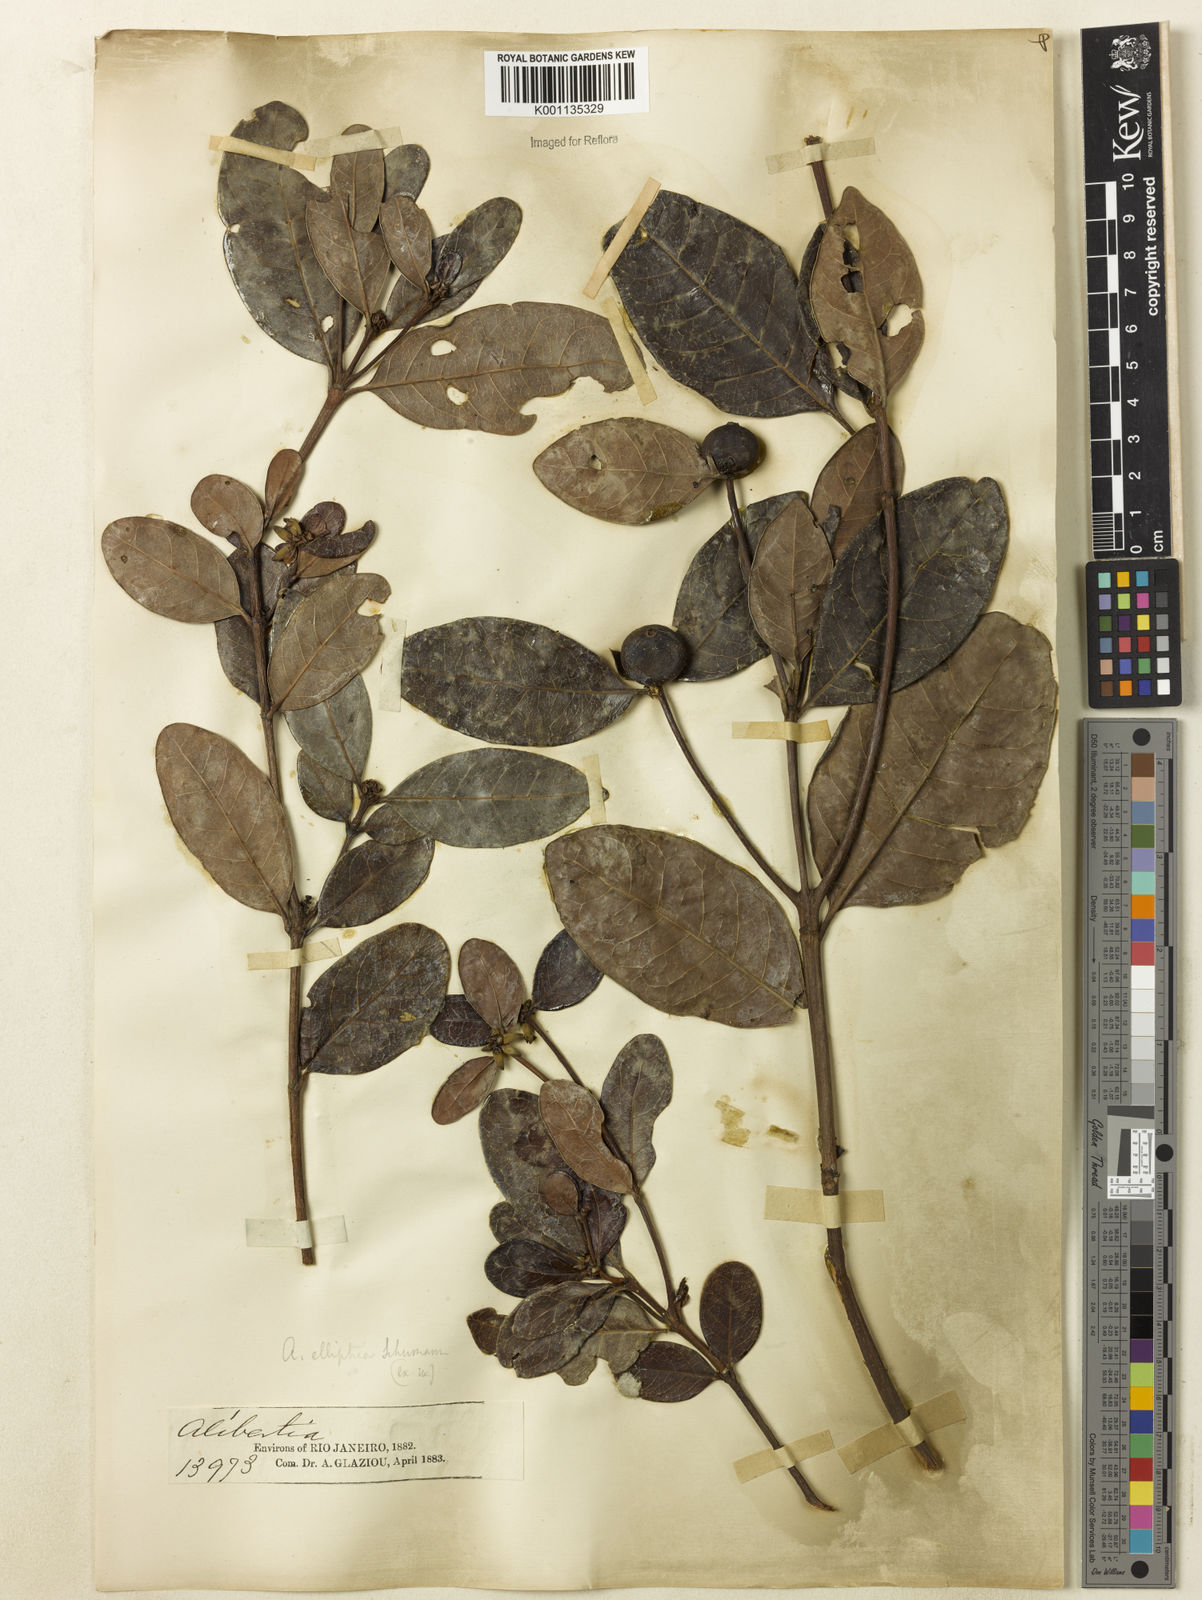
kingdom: Plantae
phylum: Tracheophyta
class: Magnoliopsida
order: Gentianales
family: Rubiaceae
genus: Cordiera
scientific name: Cordiera elliptica
